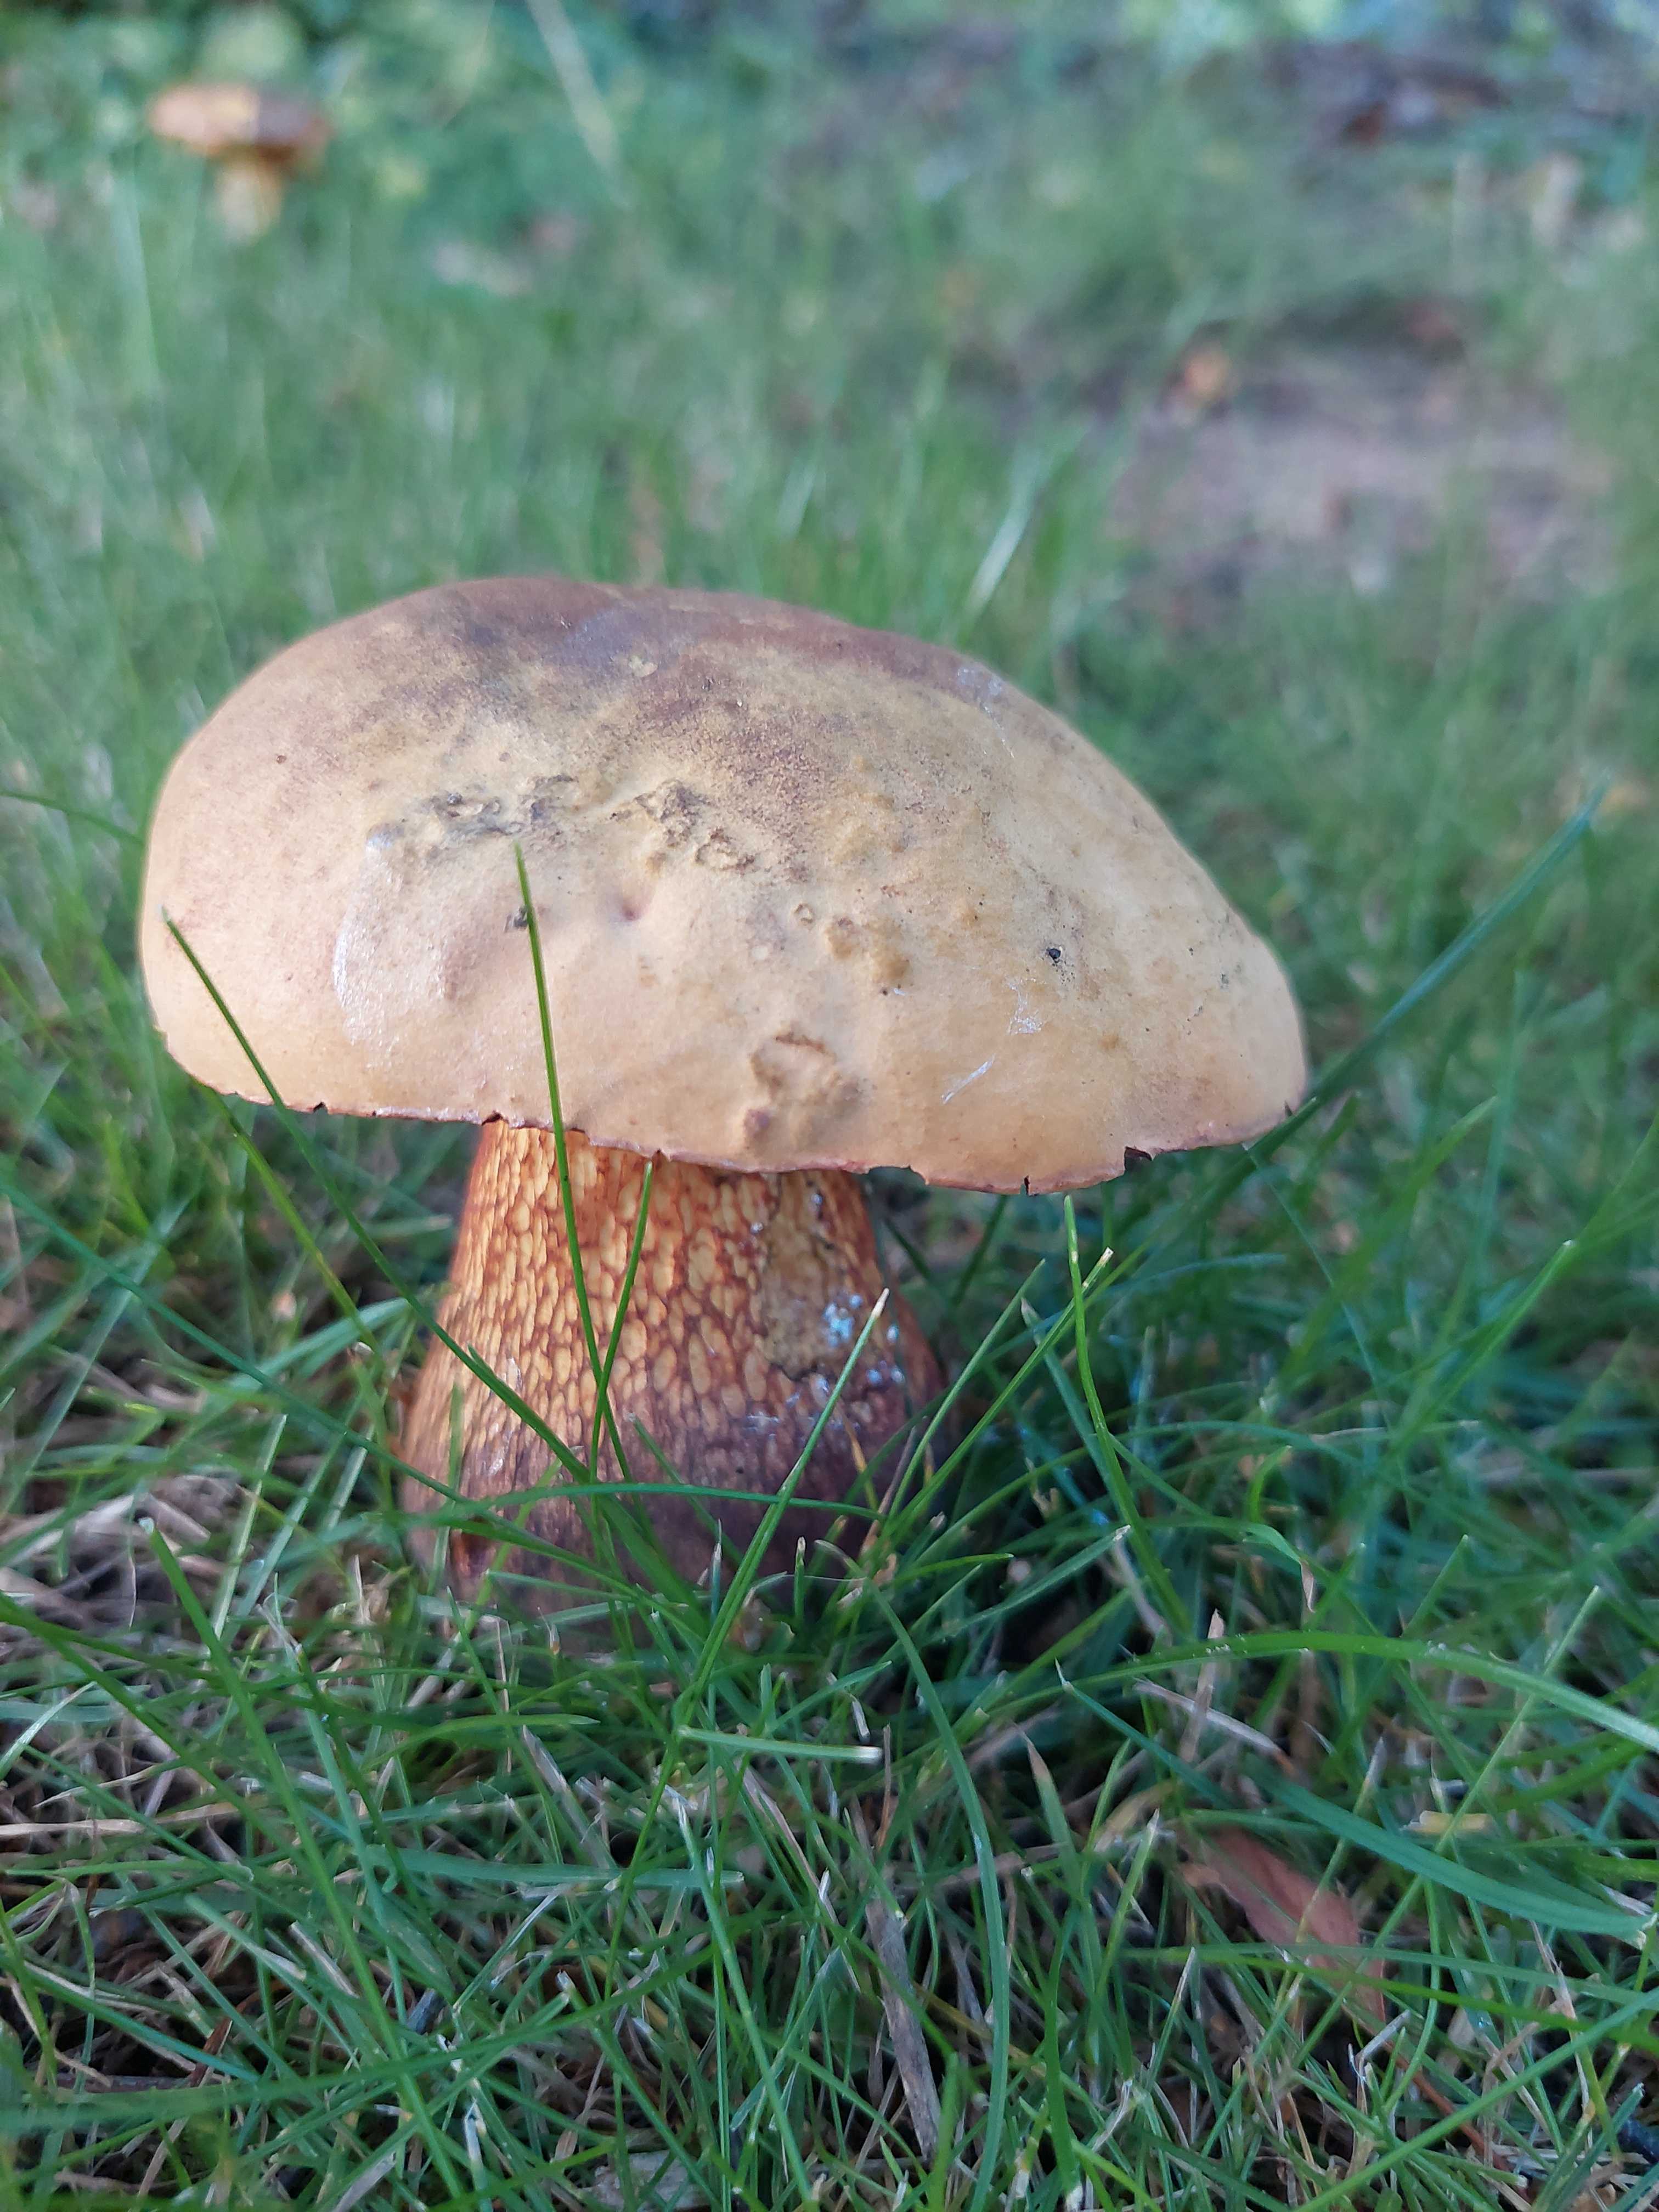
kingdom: Fungi
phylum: Basidiomycota
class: Agaricomycetes
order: Boletales
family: Boletaceae
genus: Suillellus
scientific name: Suillellus luridus
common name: netstokket indigorørhat
